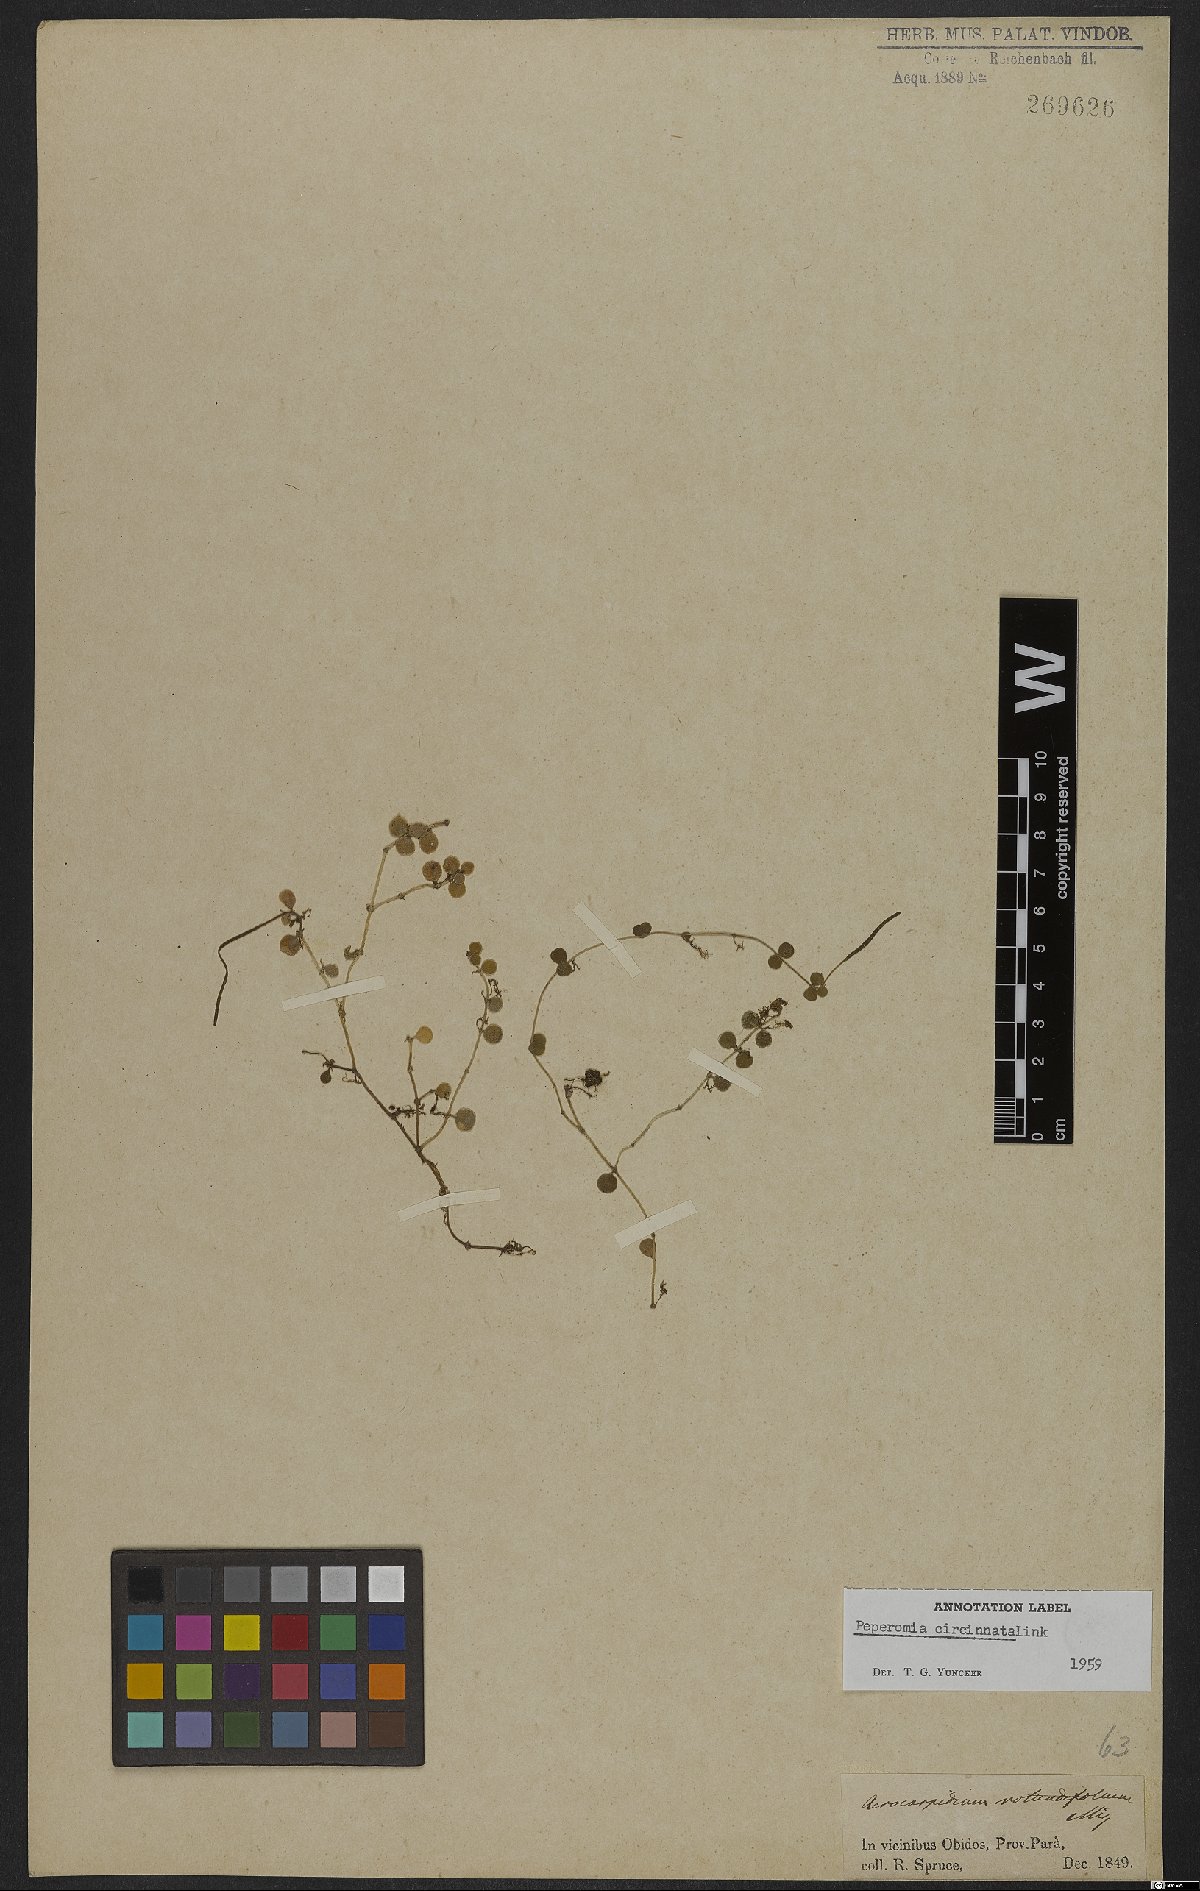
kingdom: Plantae
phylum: Tracheophyta
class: Magnoliopsida
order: Piperales
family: Piperaceae
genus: Peperomia
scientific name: Peperomia circinnata
